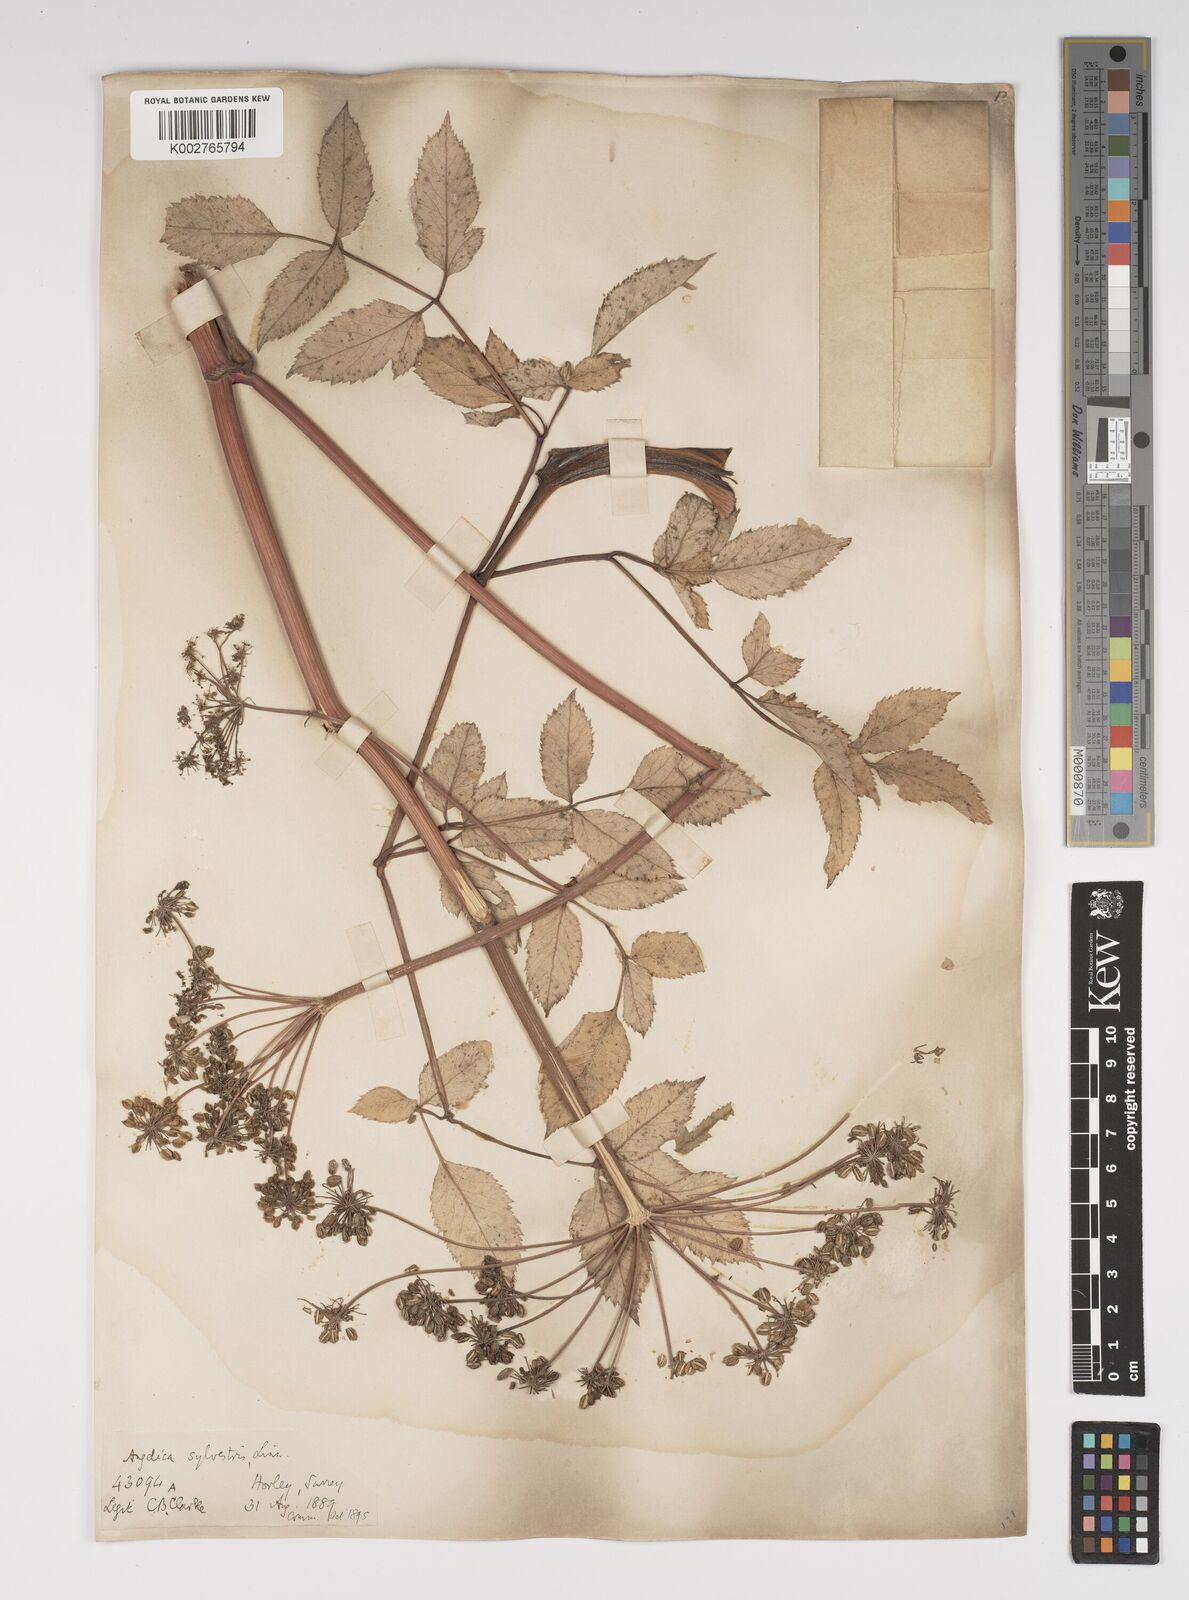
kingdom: Plantae
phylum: Tracheophyta
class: Magnoliopsida
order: Apiales
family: Apiaceae
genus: Angelica
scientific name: Angelica sylvestris
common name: Wild angelica
